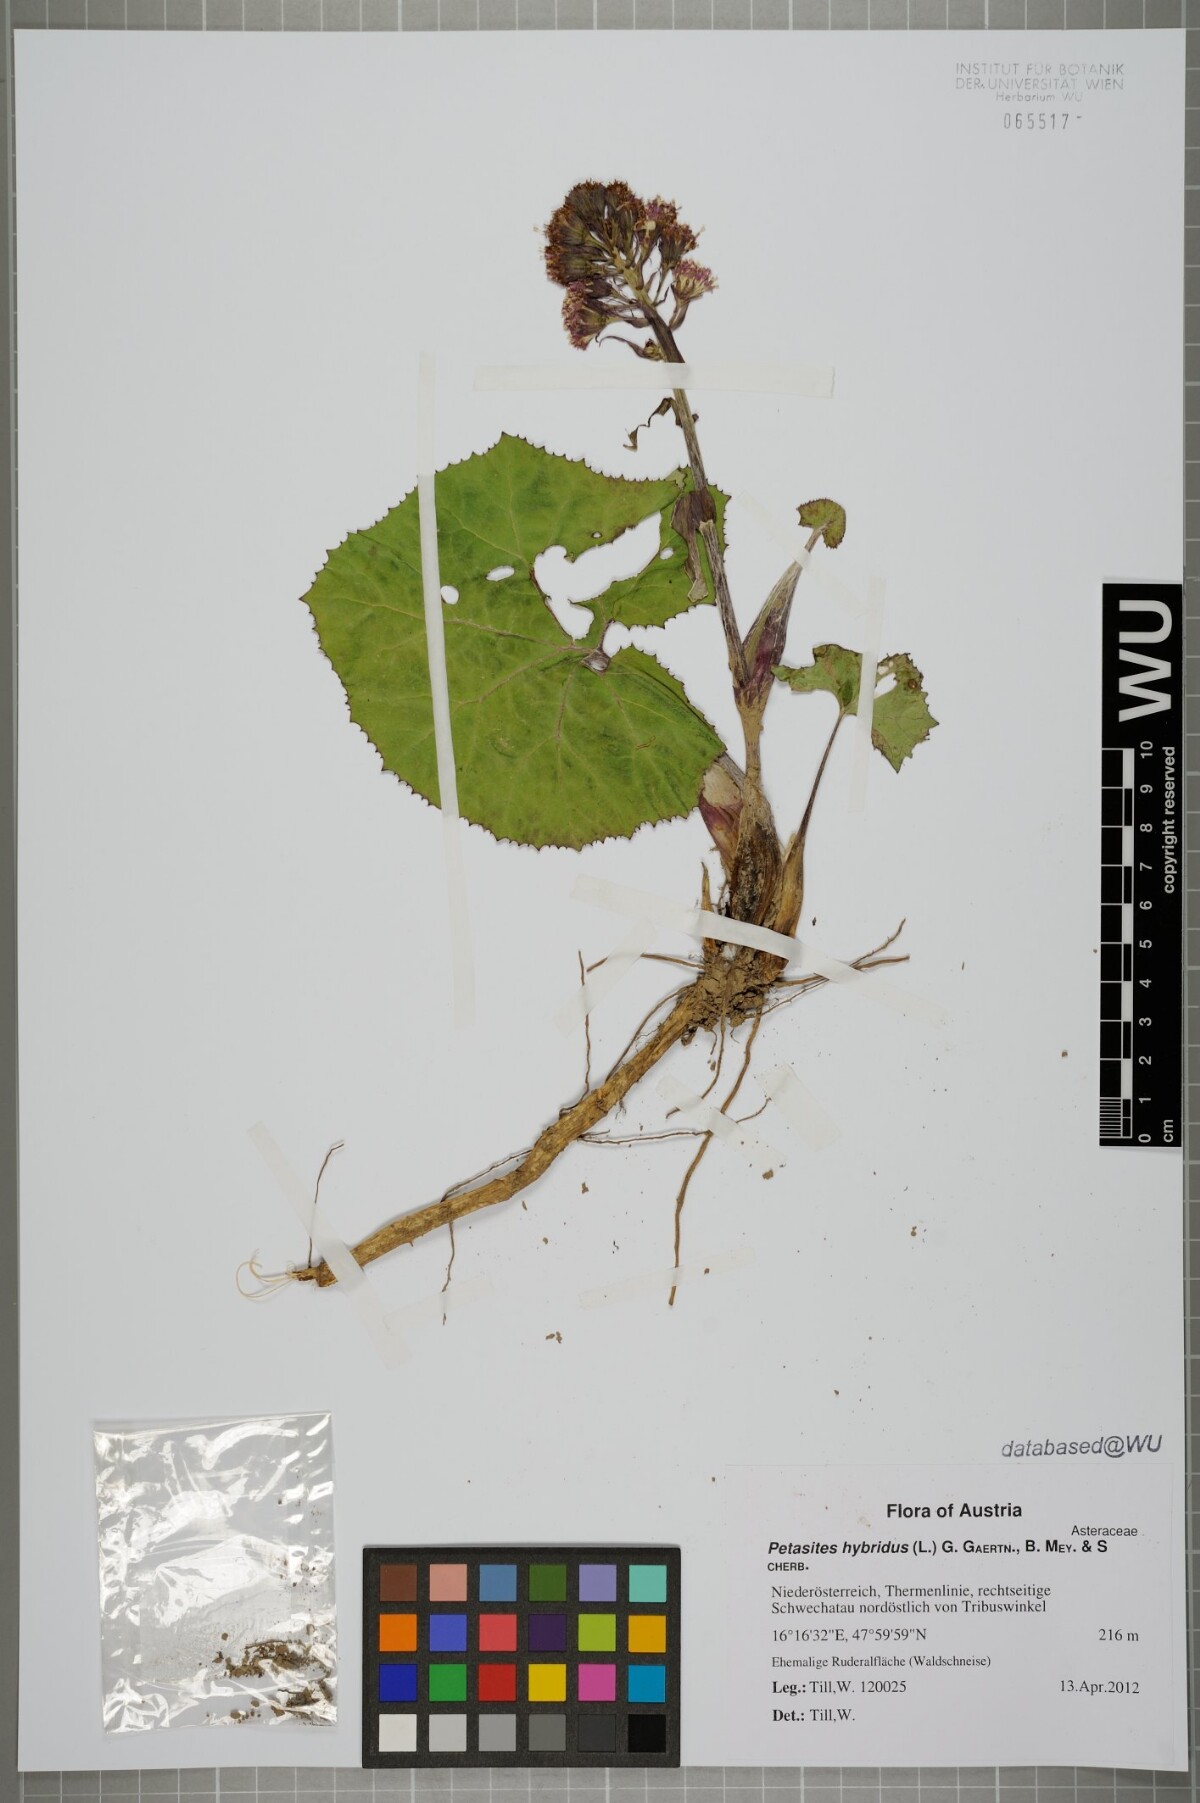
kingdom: Plantae
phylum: Tracheophyta
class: Magnoliopsida
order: Asterales
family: Asteraceae
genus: Petasites
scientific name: Petasites hybridus
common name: Butterbur
